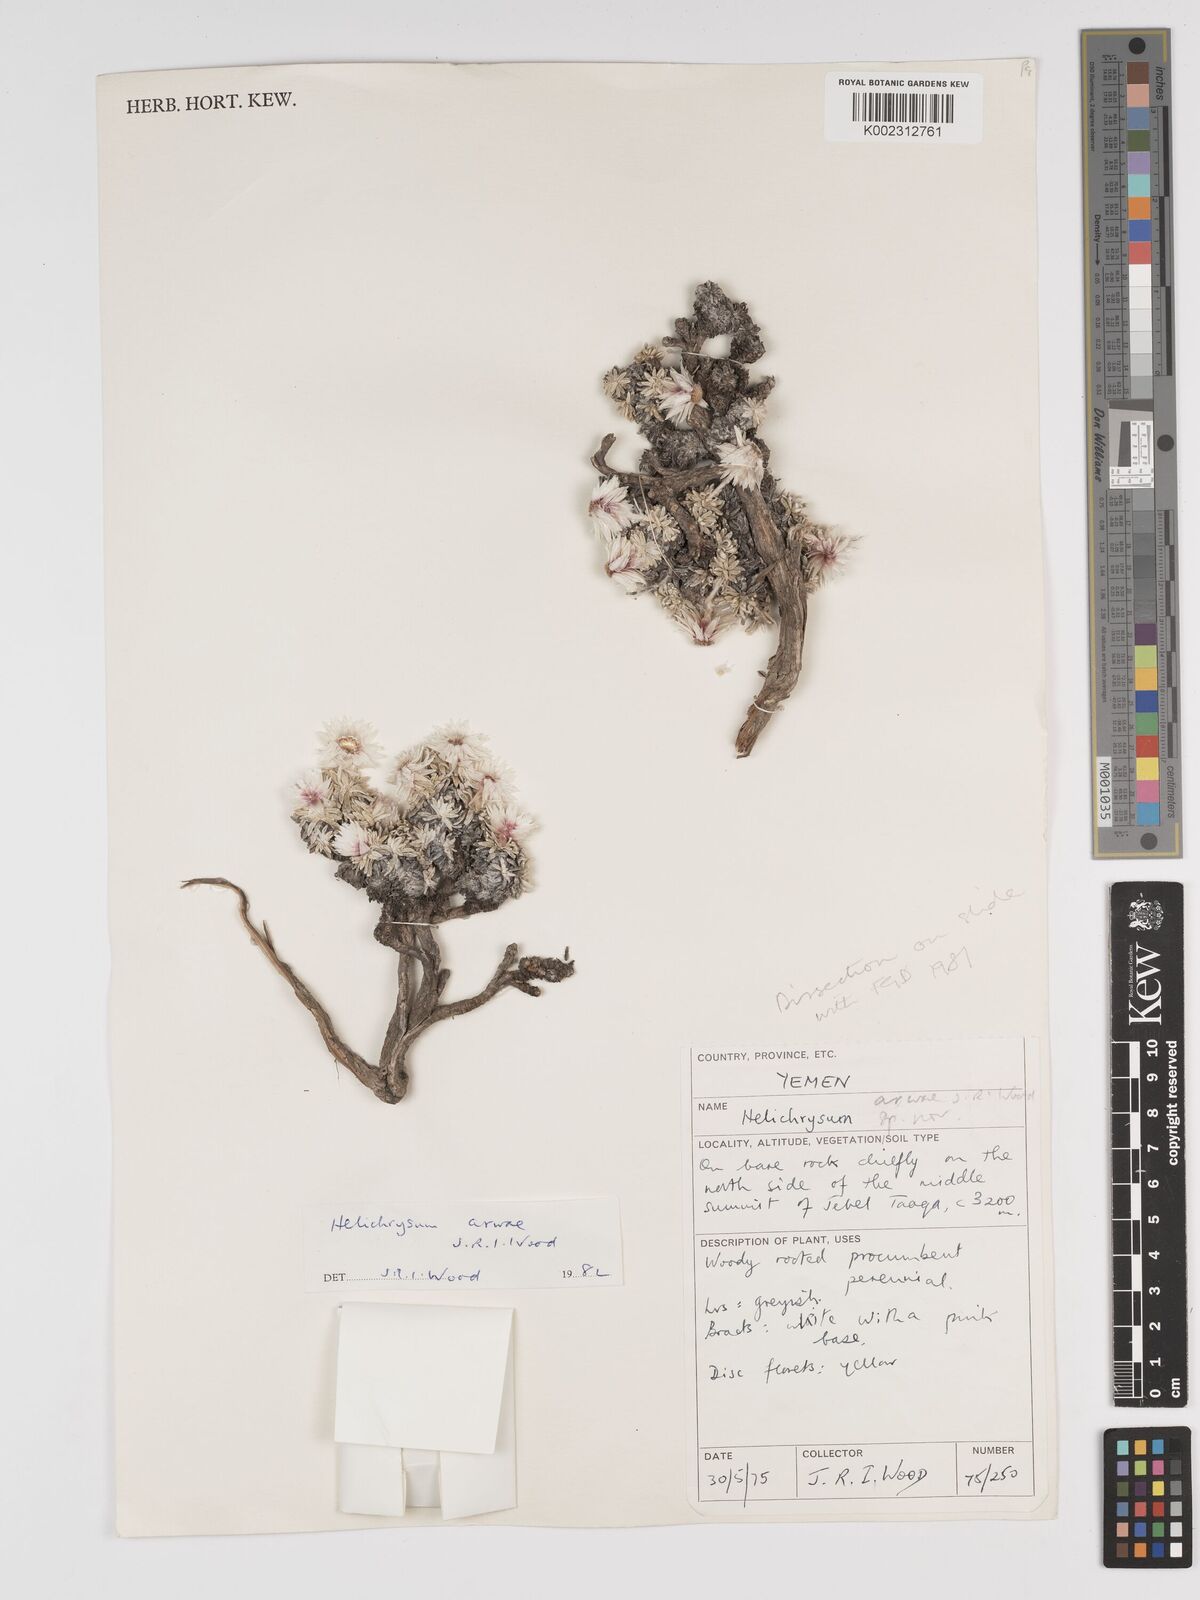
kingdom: Plantae
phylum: Tracheophyta
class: Magnoliopsida
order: Asterales
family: Asteraceae
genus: Helichrysum
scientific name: Helichrysum arwae
